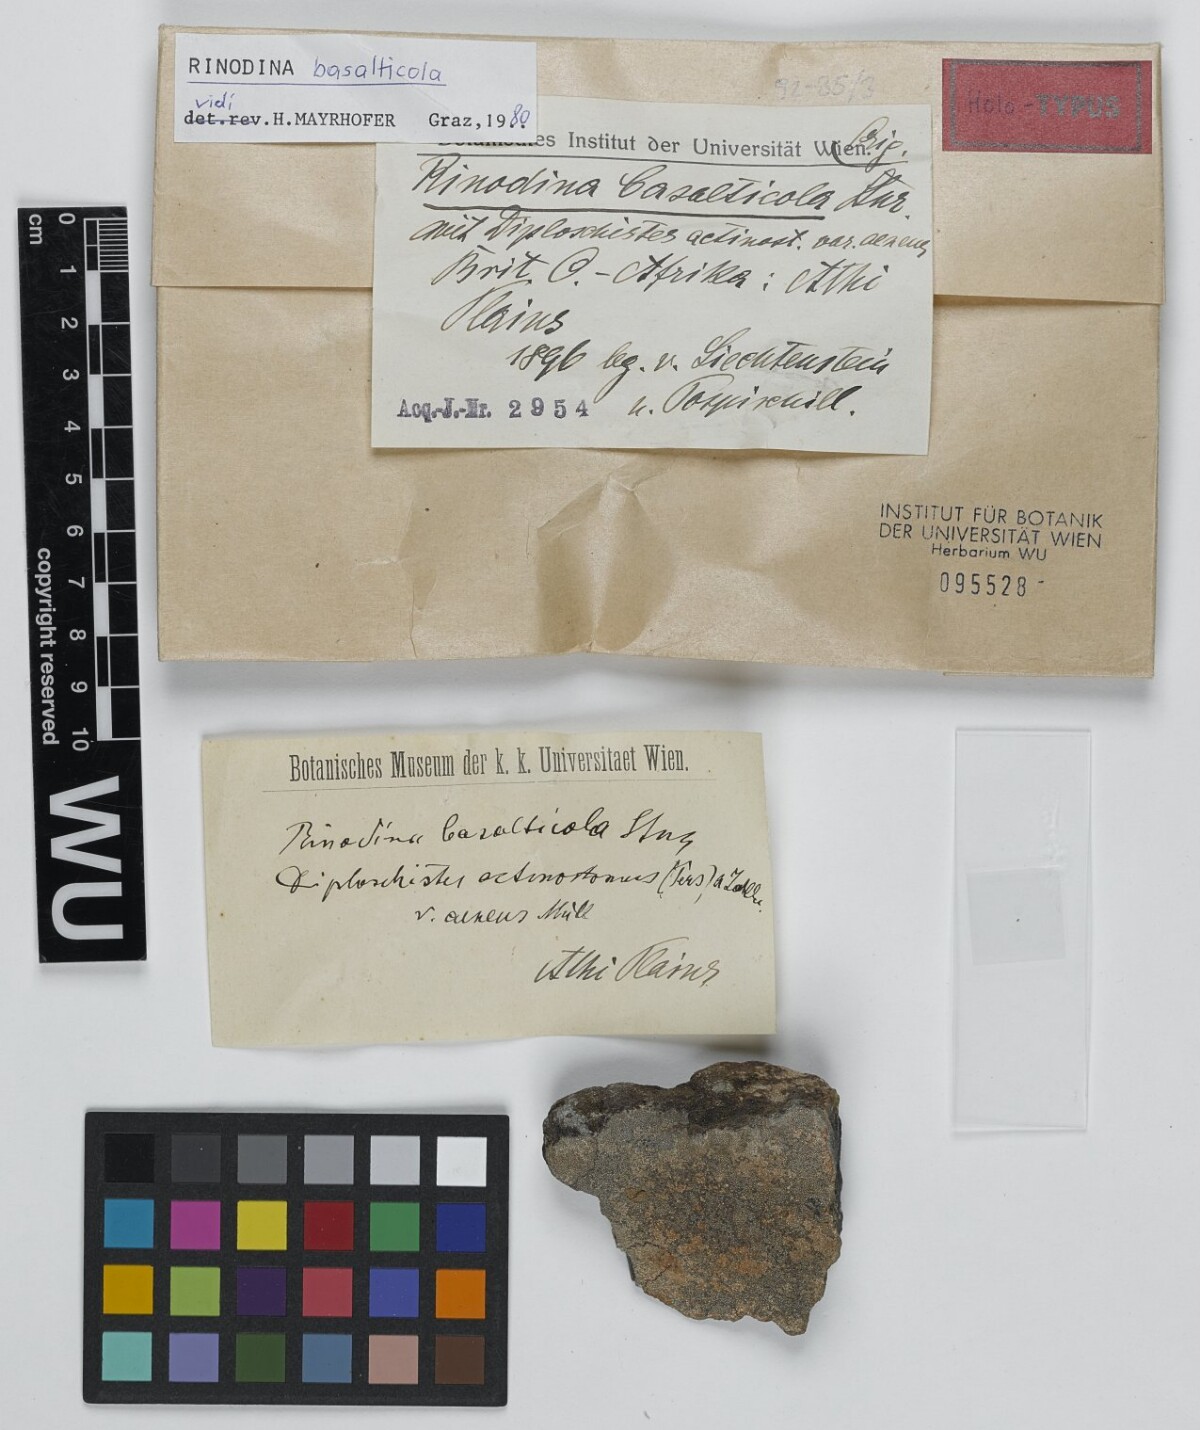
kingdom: Fungi
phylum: Ascomycota
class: Lecanoromycetes
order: Caliciales
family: Physciaceae
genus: Rinodina
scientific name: Rinodina
